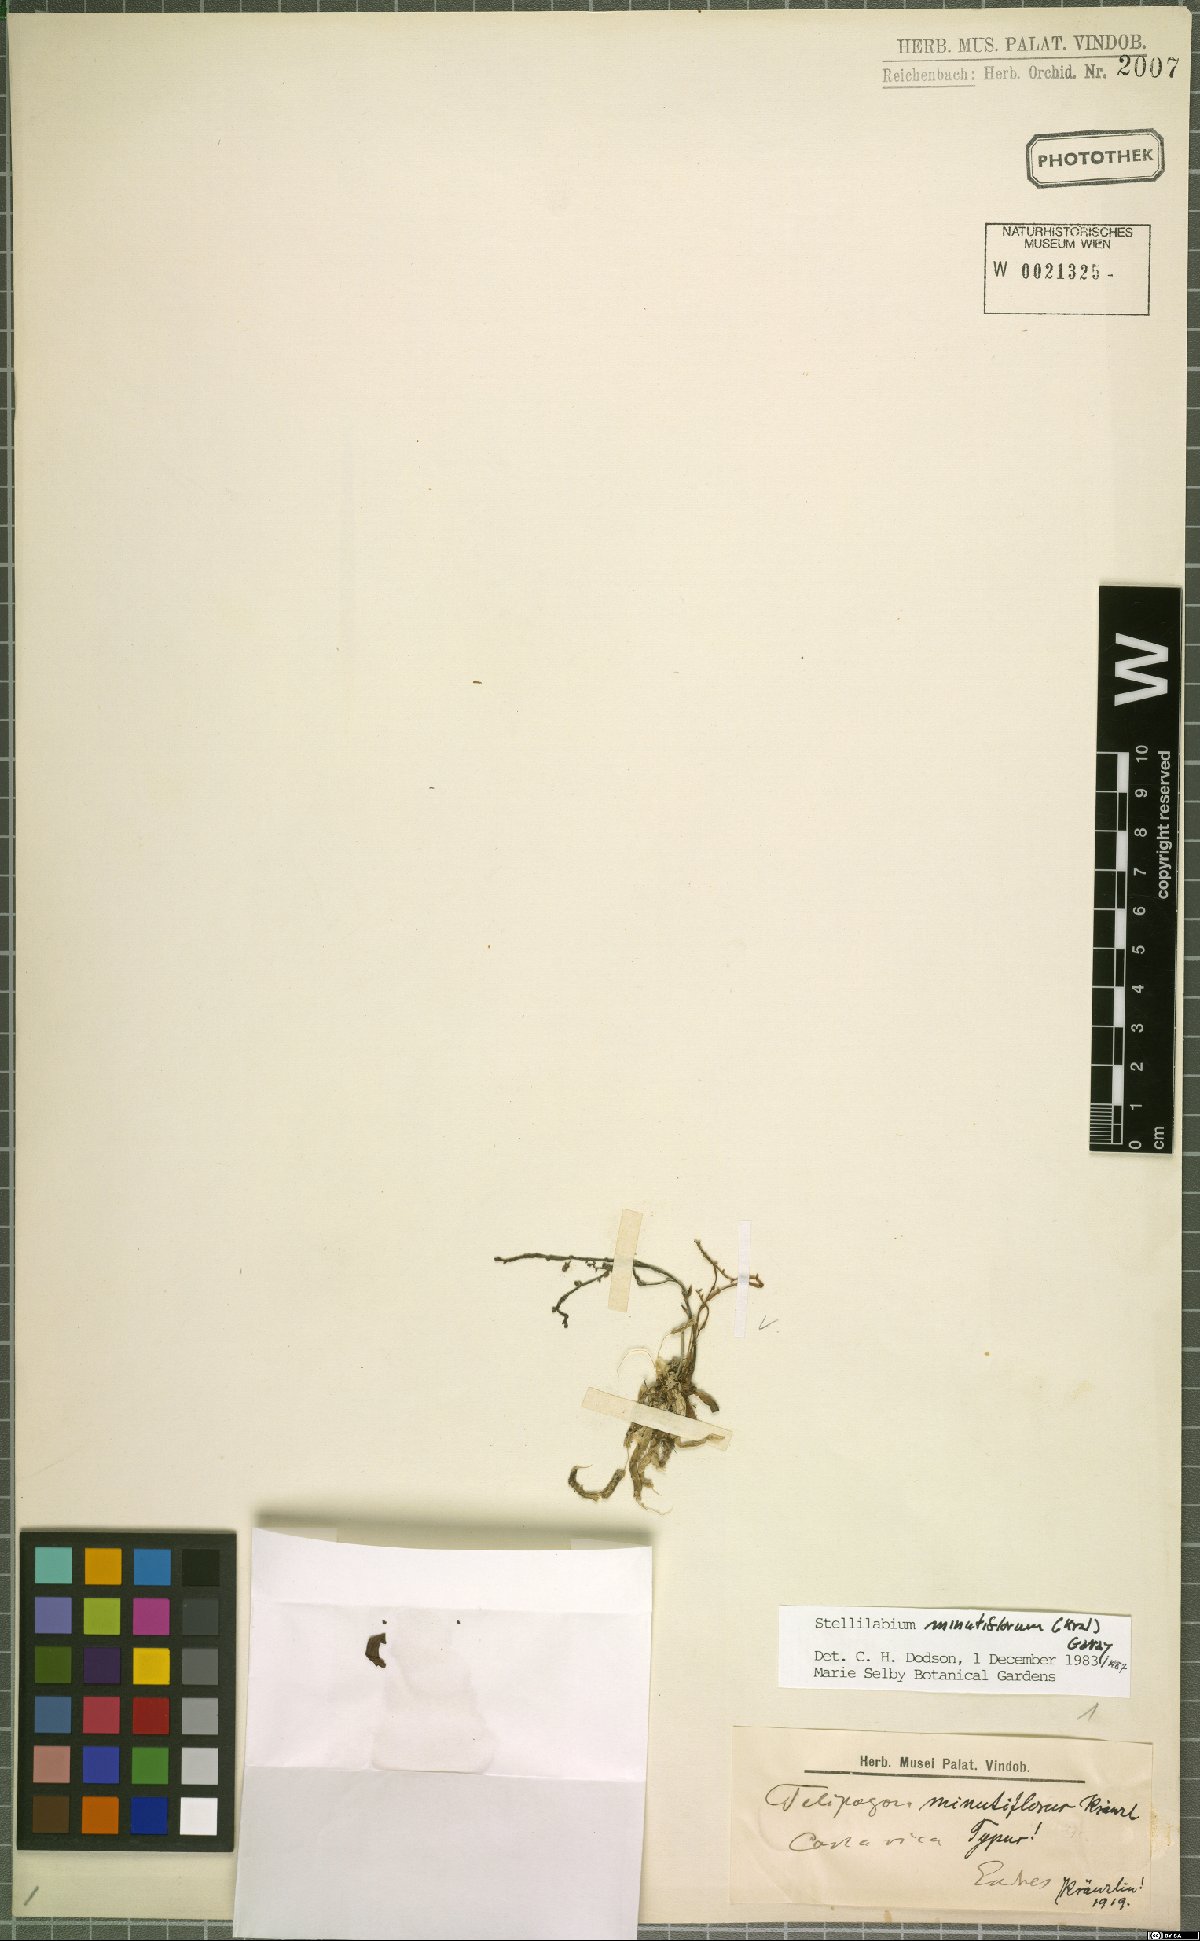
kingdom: Plantae
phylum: Tracheophyta
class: Liliopsida
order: Asparagales
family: Orchidaceae
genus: Telipogon
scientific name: Telipogon minutiflorus
